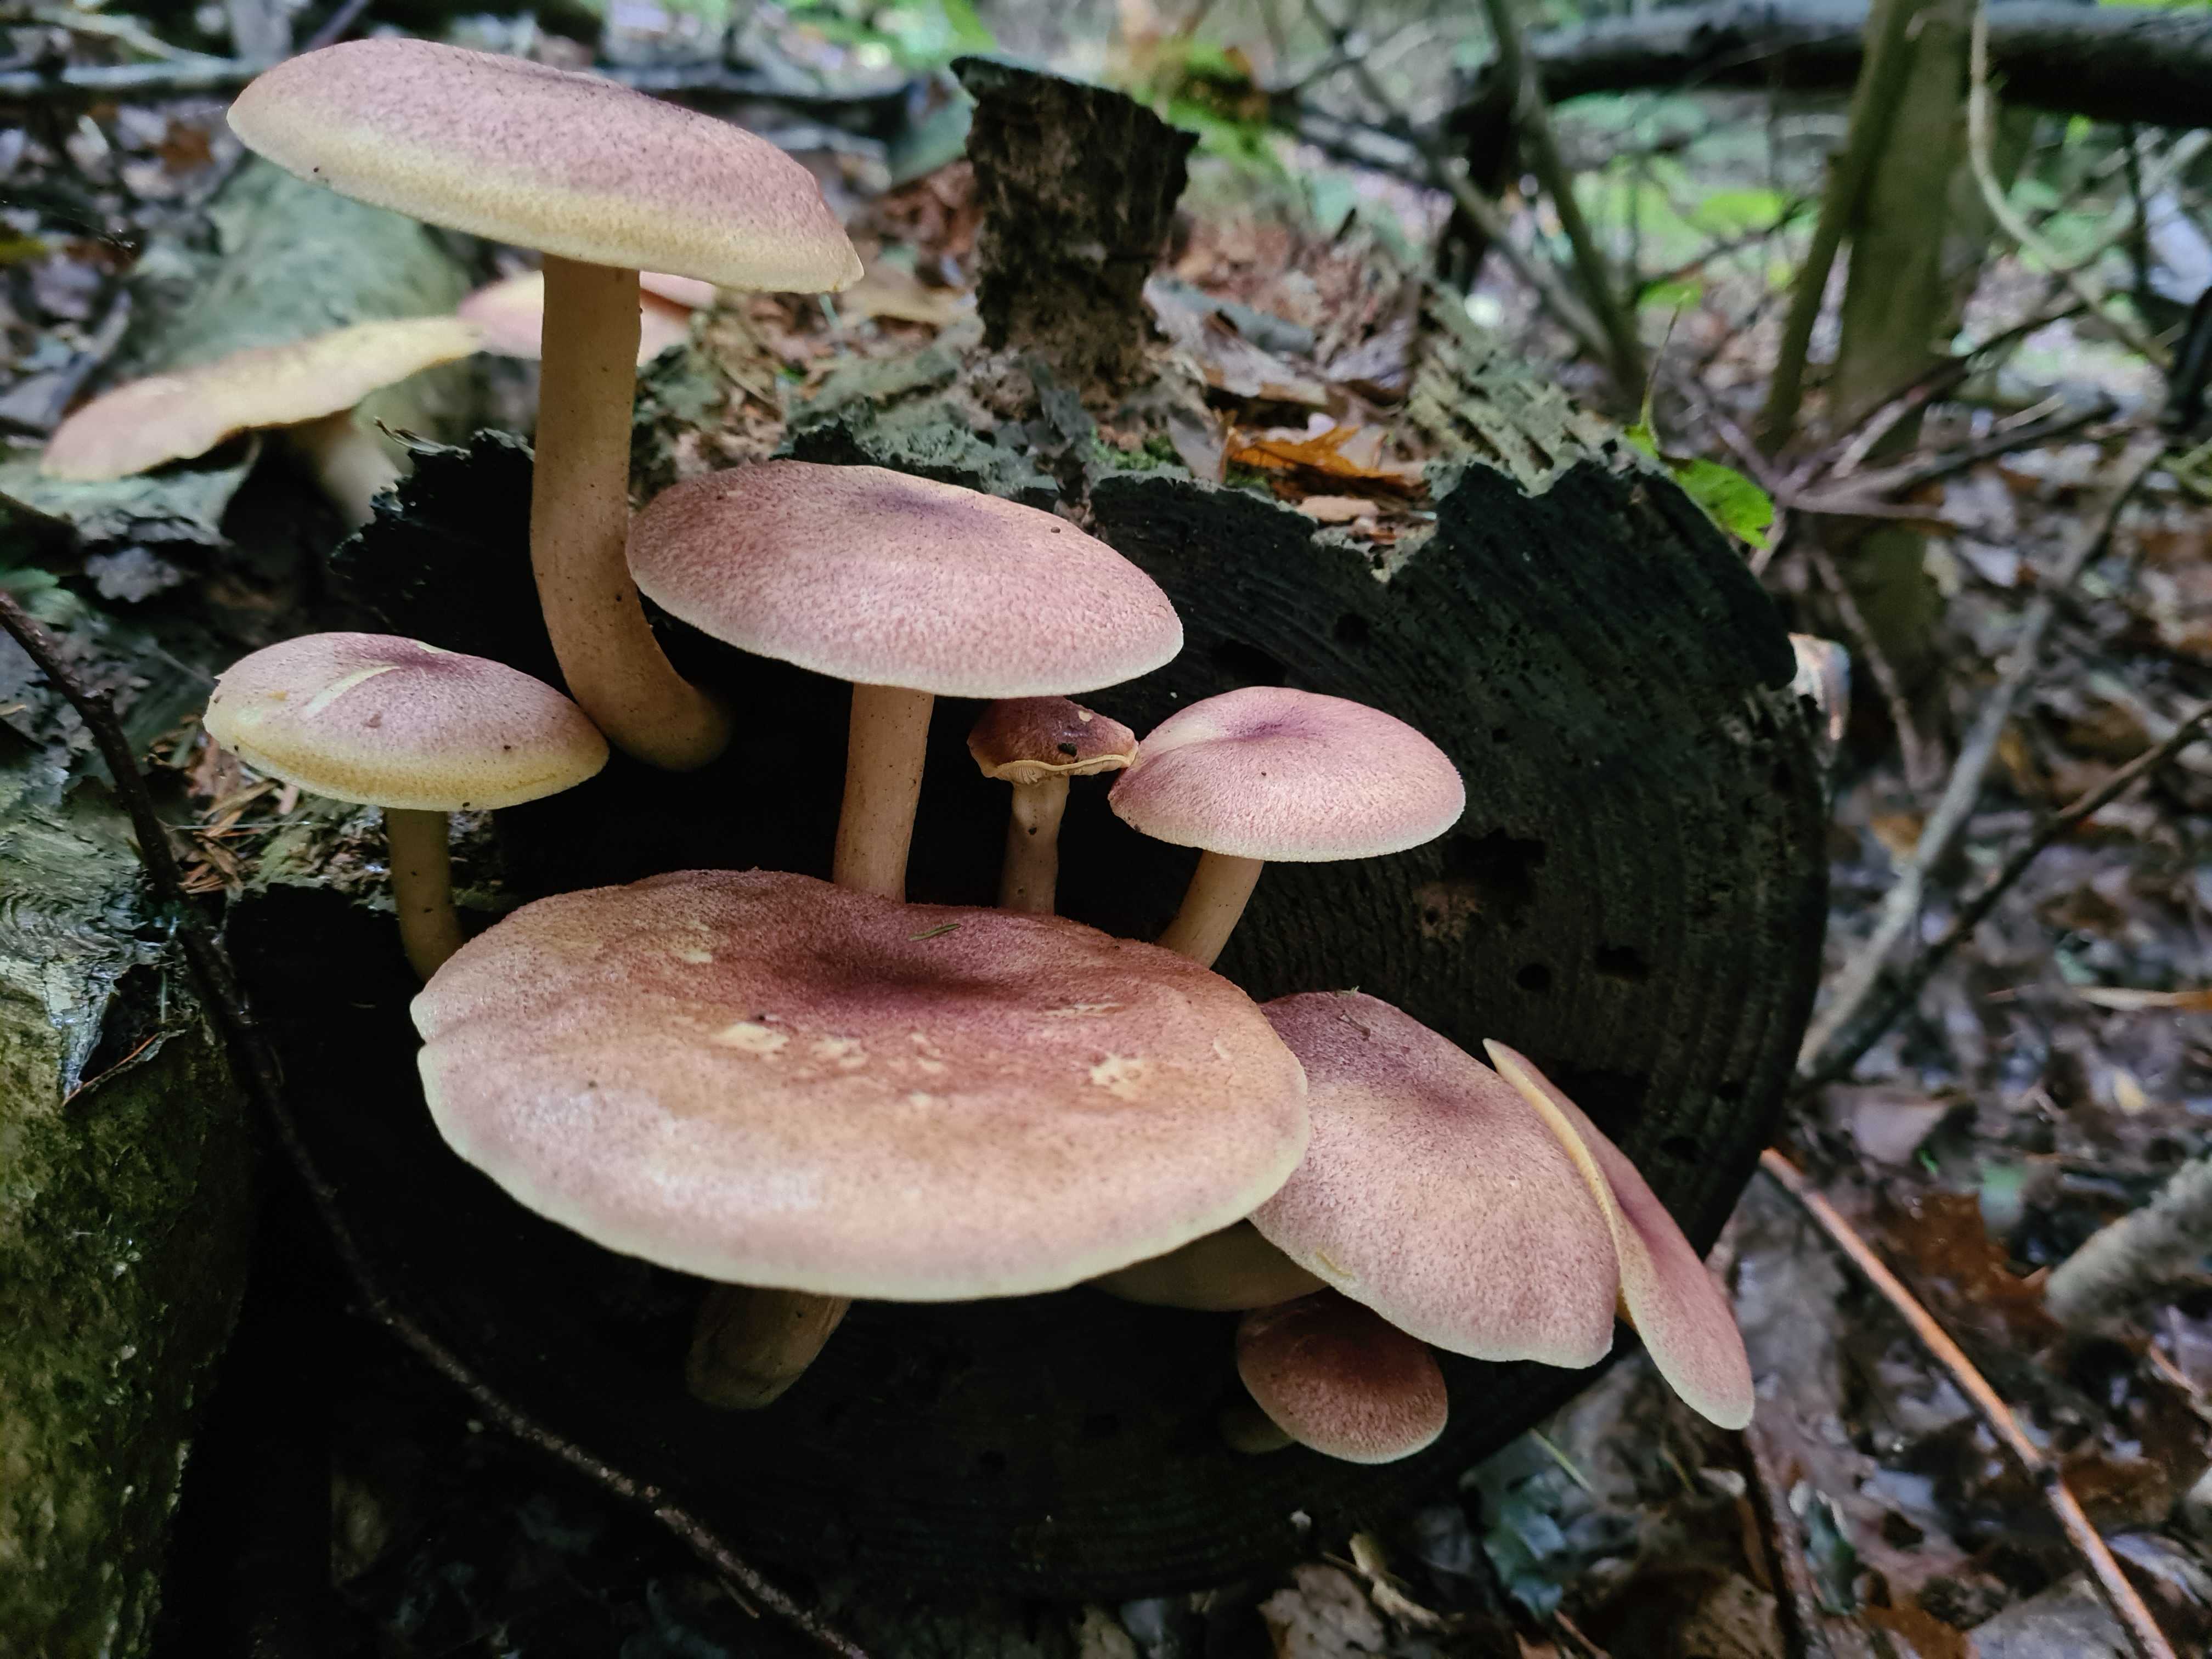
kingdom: Fungi
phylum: Basidiomycota
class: Agaricomycetes
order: Agaricales
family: Tricholomataceae
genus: Tricholomopsis
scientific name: Tricholomopsis rutilans
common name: purpur-væbnerhat
